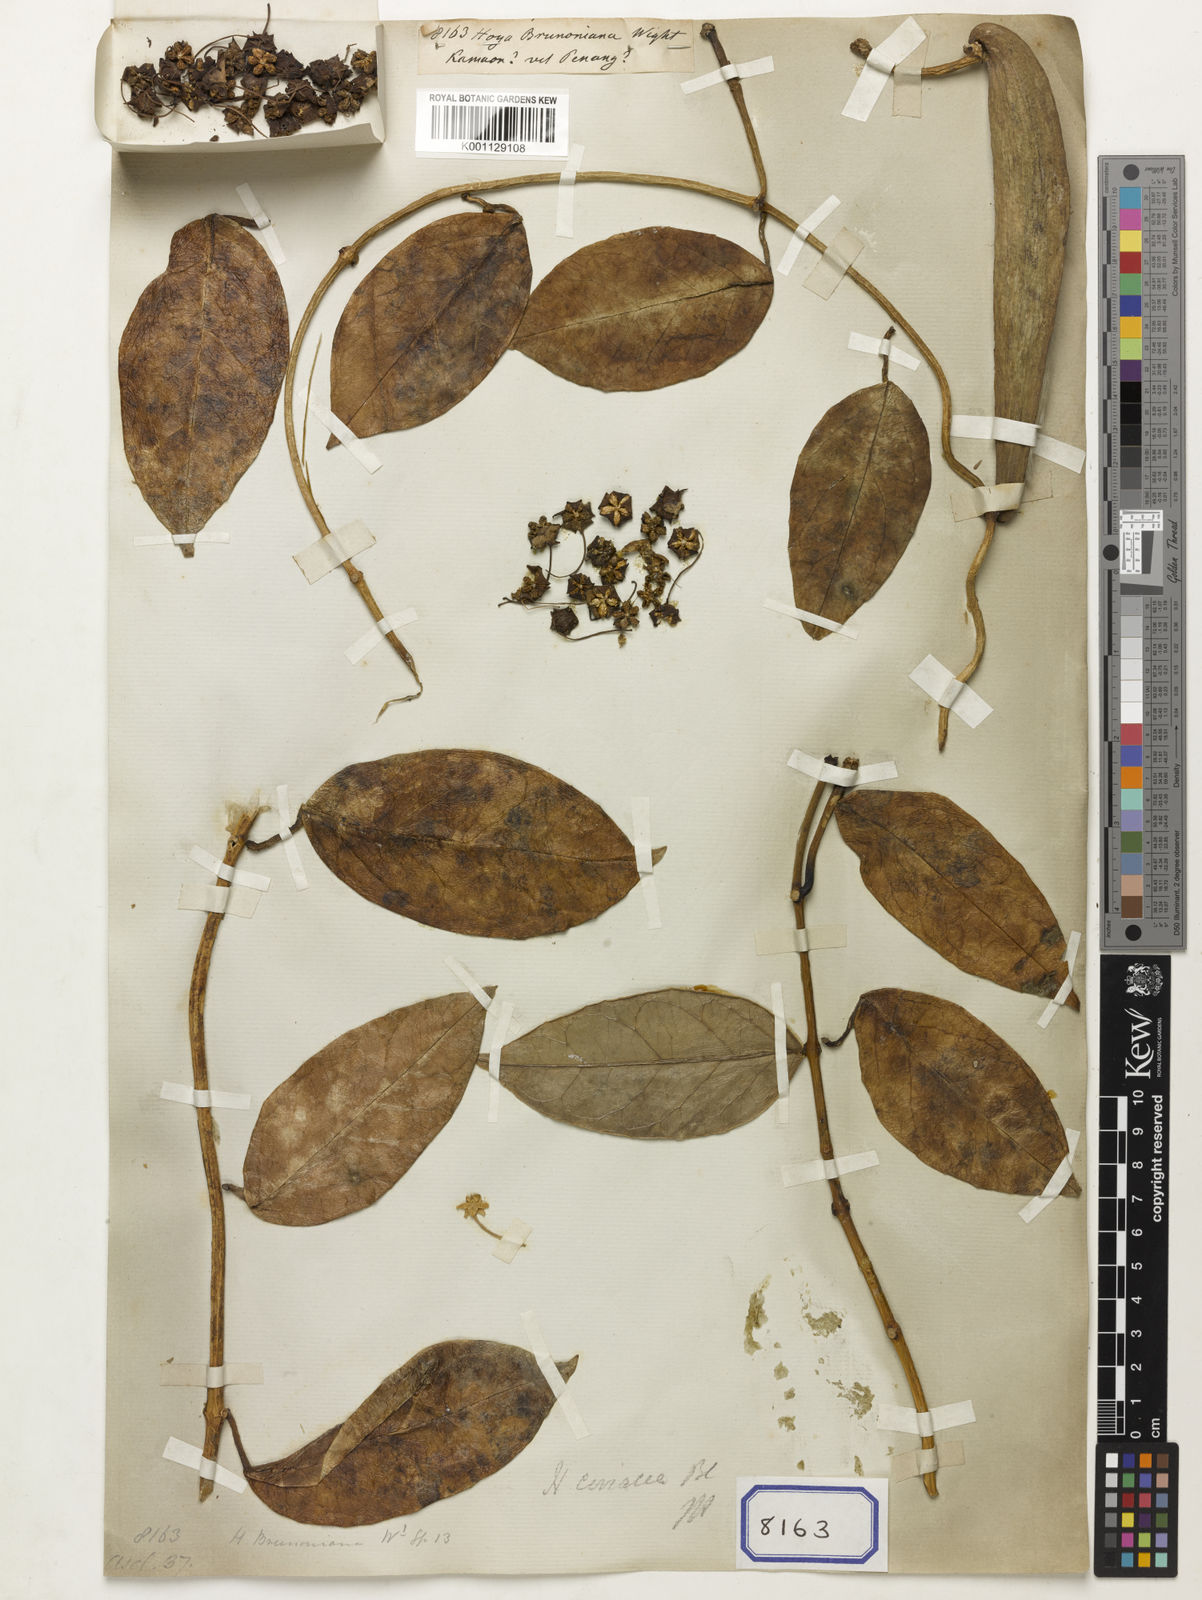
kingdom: Plantae
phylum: Tracheophyta
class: Magnoliopsida
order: Gentianales
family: Apocynaceae
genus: Hoya
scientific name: Hoya coriacea
